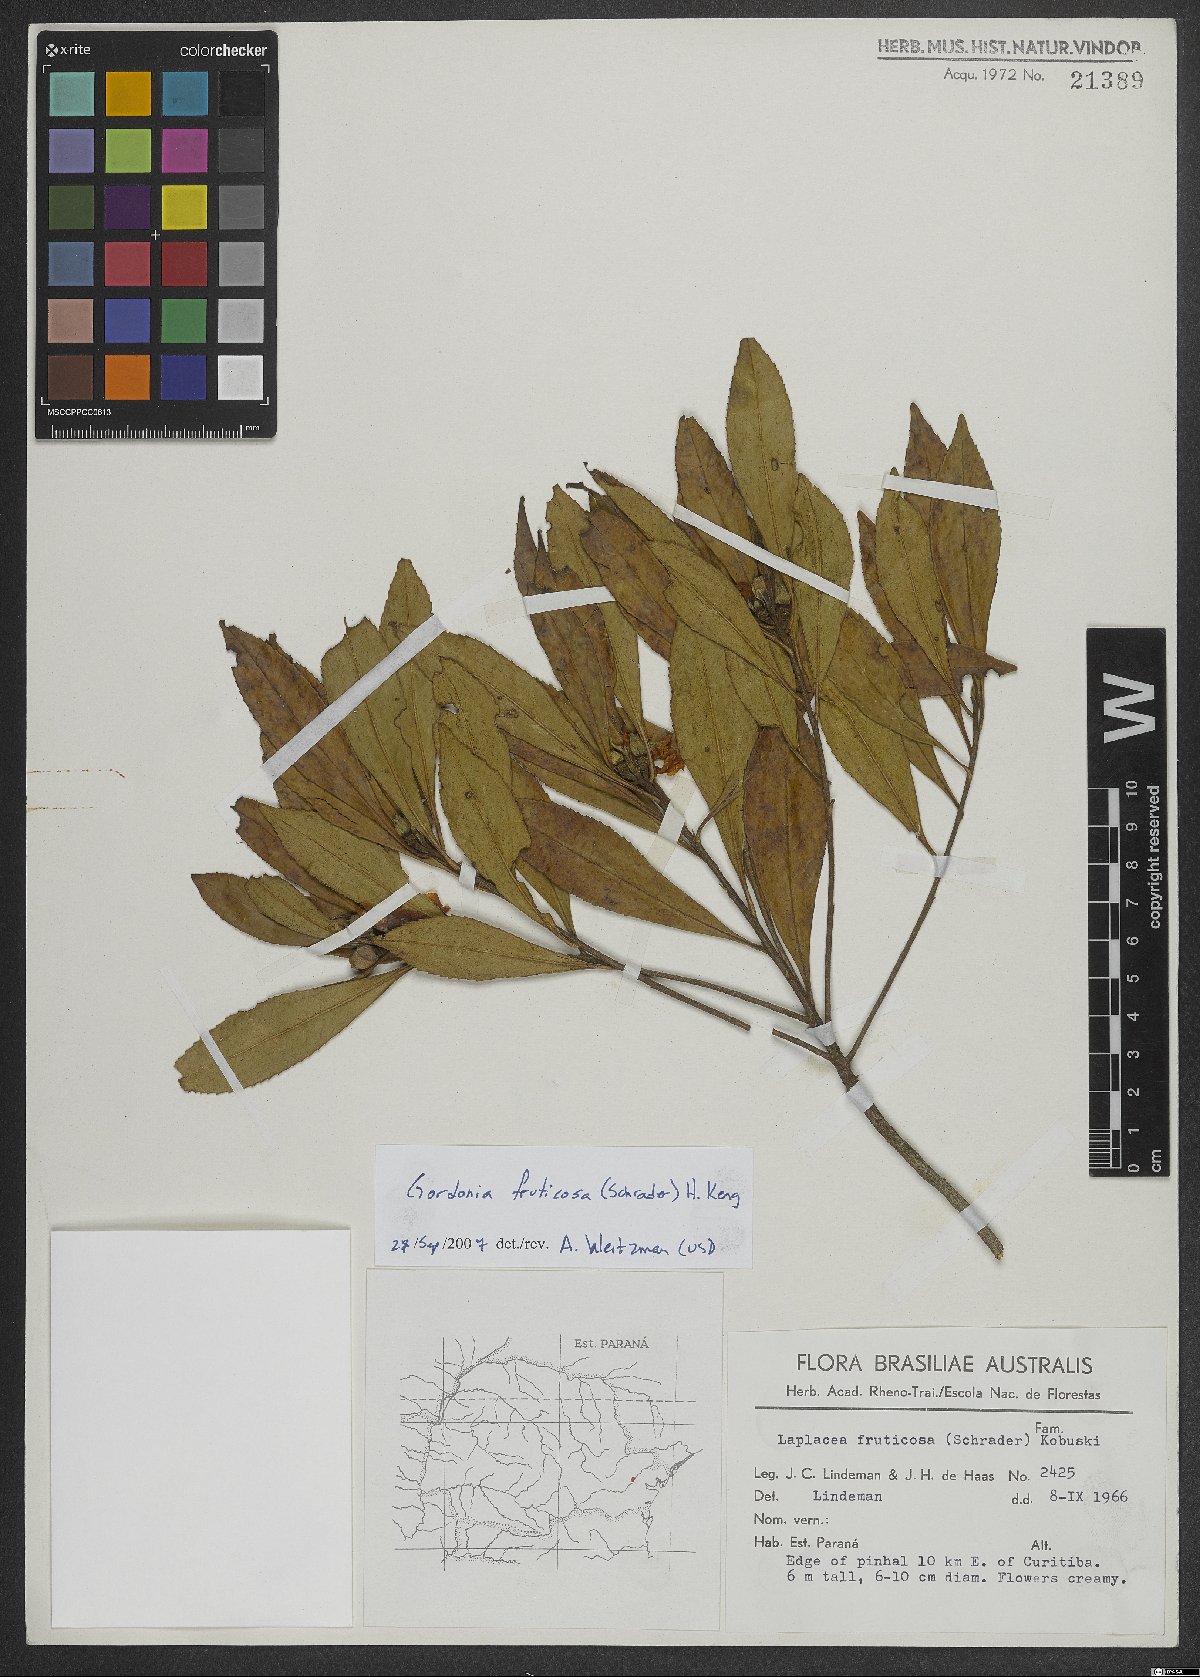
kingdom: Plantae
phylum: Tracheophyta
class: Magnoliopsida
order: Ericales
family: Theaceae
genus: Gordonia
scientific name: Gordonia fruticosa
